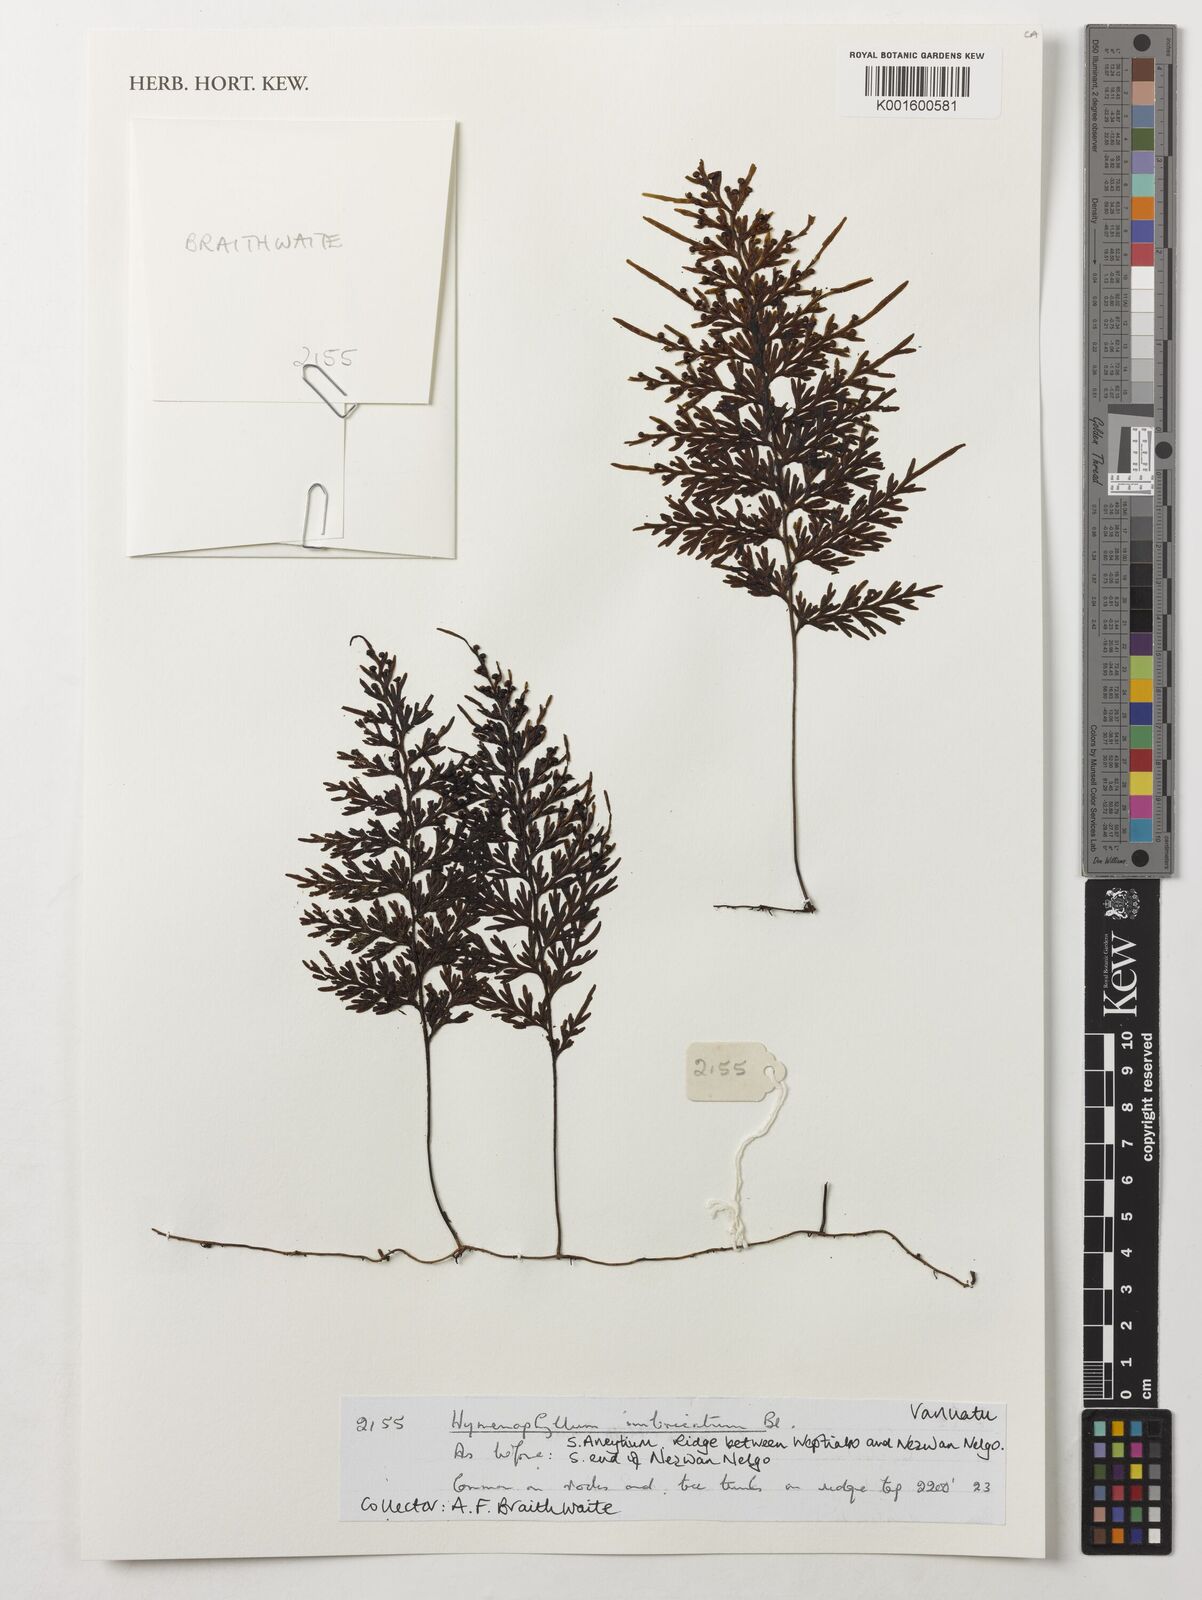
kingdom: Plantae
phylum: Tracheophyta
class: Polypodiopsida
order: Hymenophyllales
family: Hymenophyllaceae
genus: Hymenophyllum
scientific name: Hymenophyllum imbricatum
